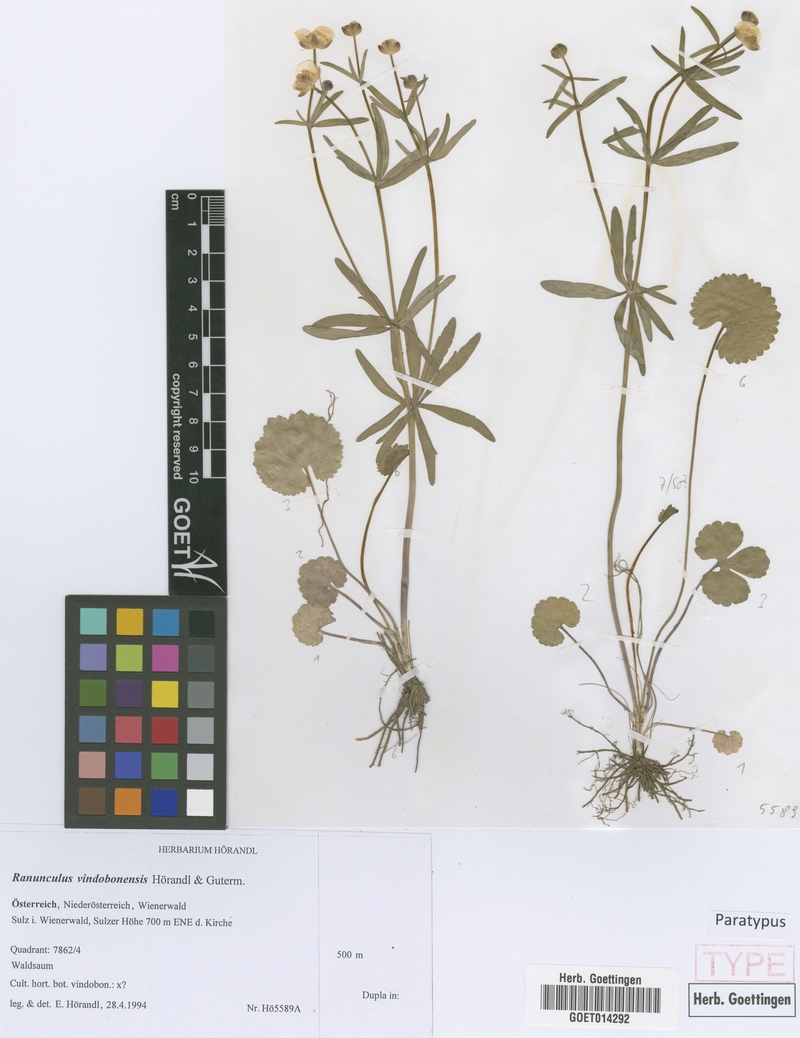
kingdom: Plantae
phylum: Tracheophyta
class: Magnoliopsida
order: Ranunculales
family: Ranunculaceae
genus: Ranunculus
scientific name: Ranunculus vindobonensis
